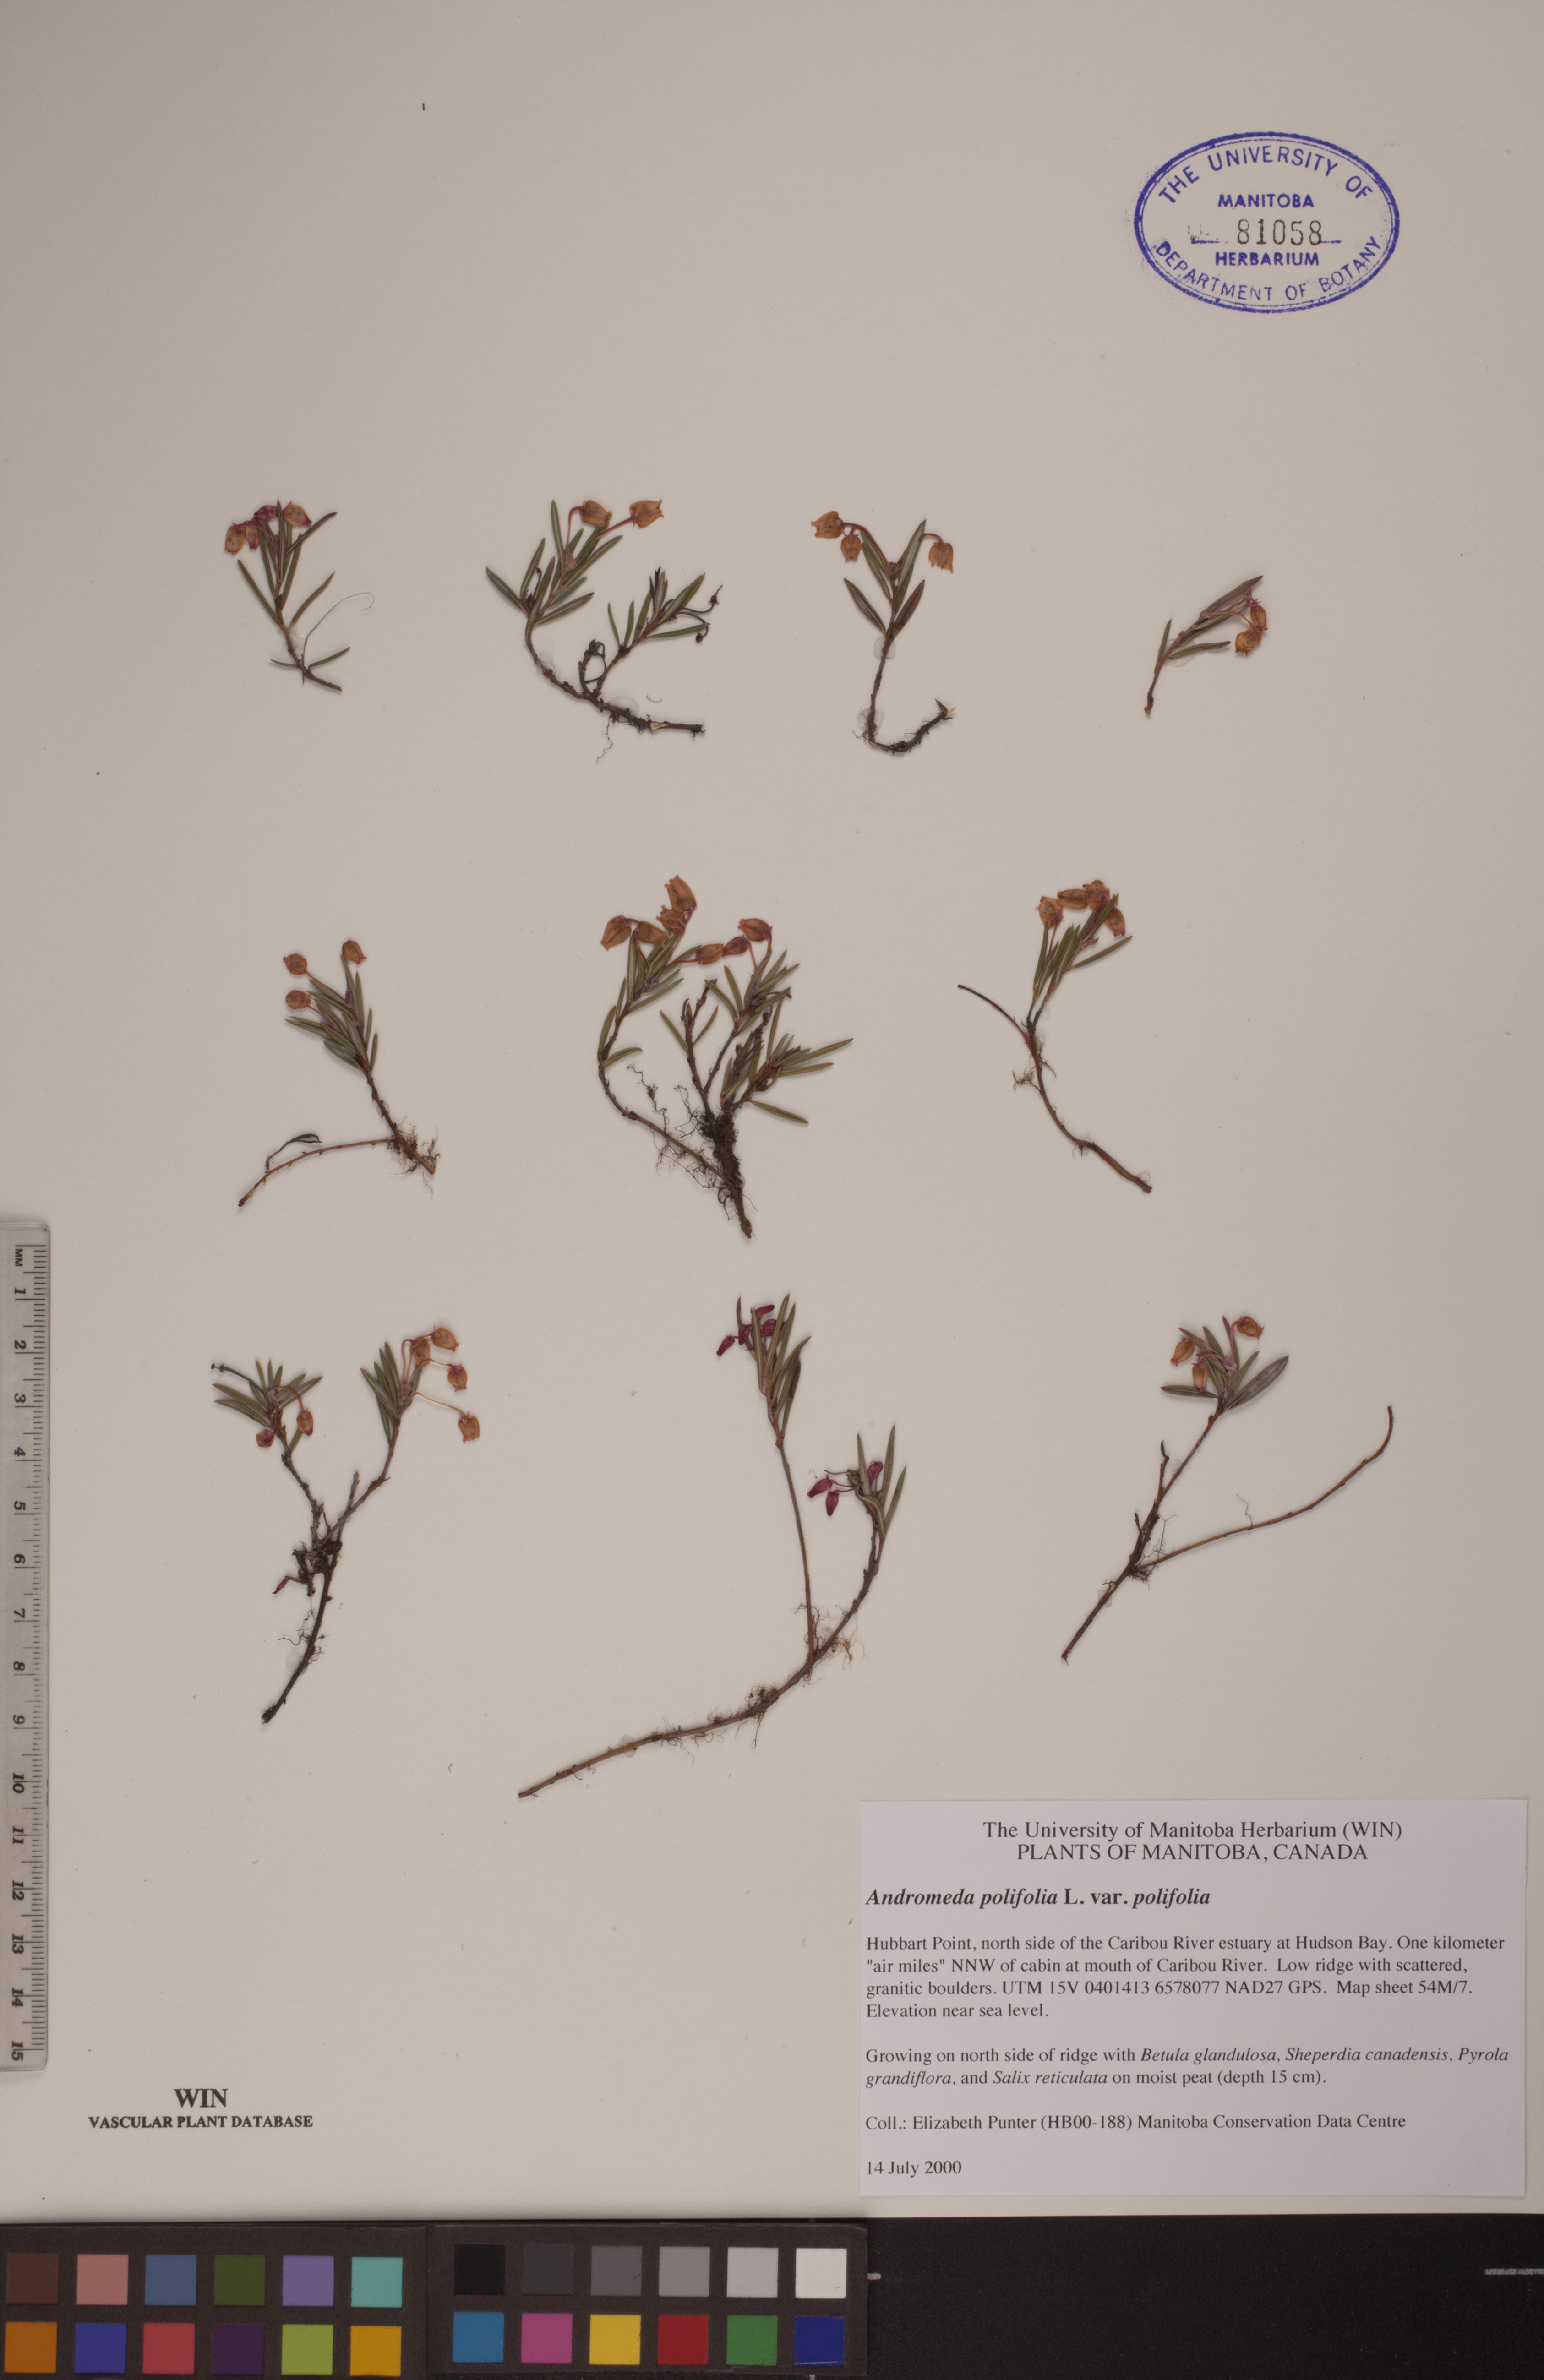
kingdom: Plantae
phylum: Tracheophyta
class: Magnoliopsida
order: Ericales
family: Ericaceae
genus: Andromeda
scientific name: Andromeda polifolia
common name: Bog-rosemary
